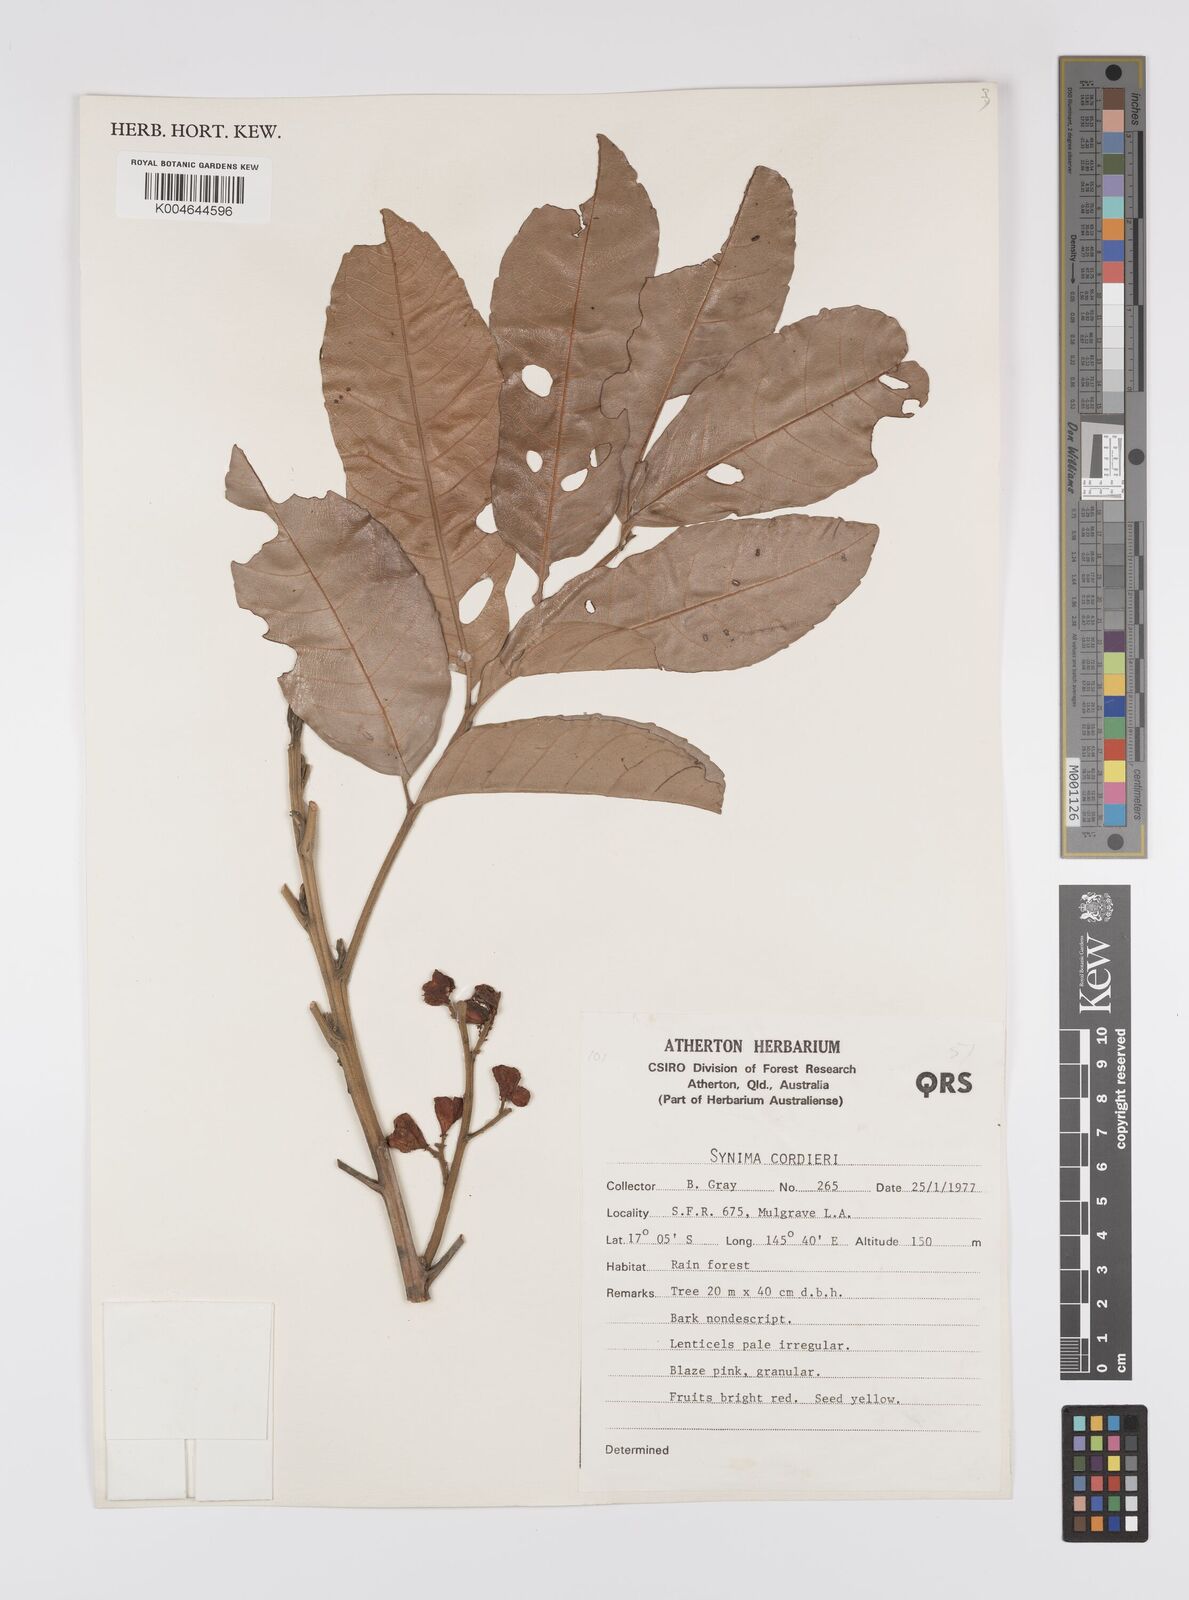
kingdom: Plantae
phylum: Tracheophyta
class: Magnoliopsida
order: Sapindales
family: Sapindaceae
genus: Synima
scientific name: Synima
